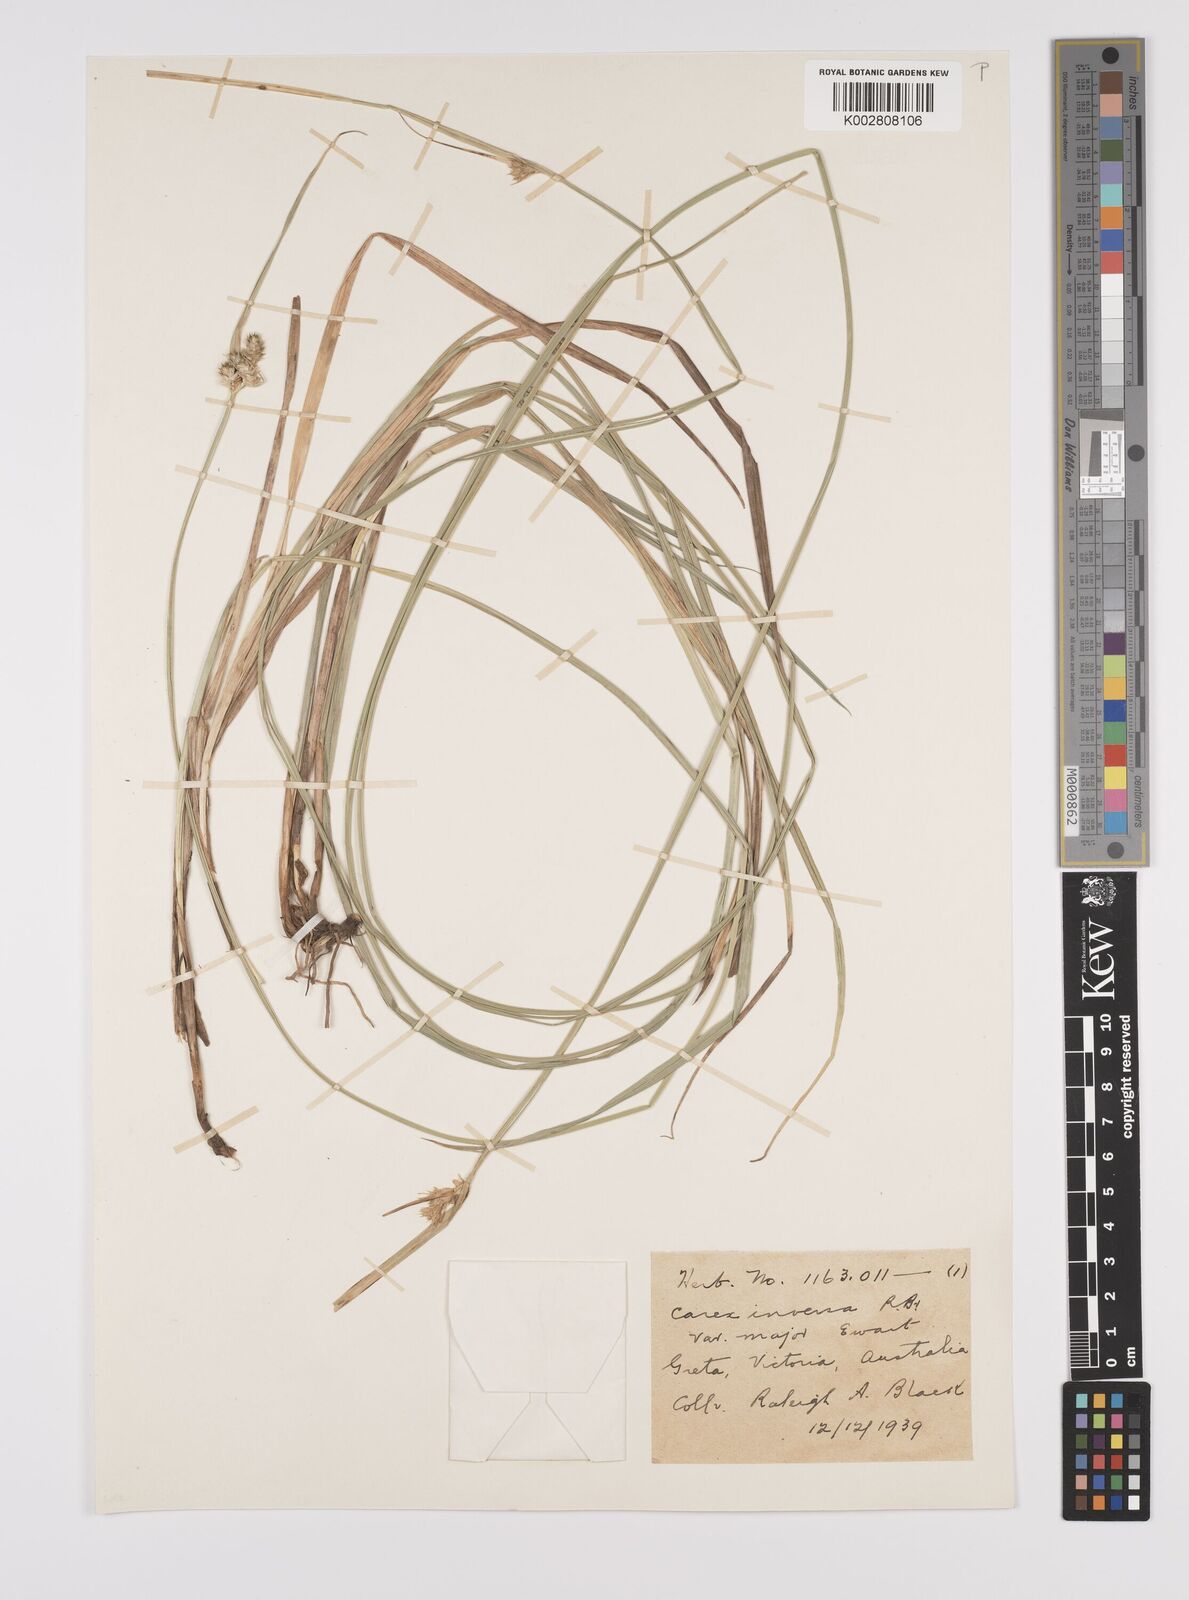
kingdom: Plantae
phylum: Tracheophyta
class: Liliopsida
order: Poales
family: Cyperaceae
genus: Carex
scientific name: Carex inversa
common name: Knob sedge
